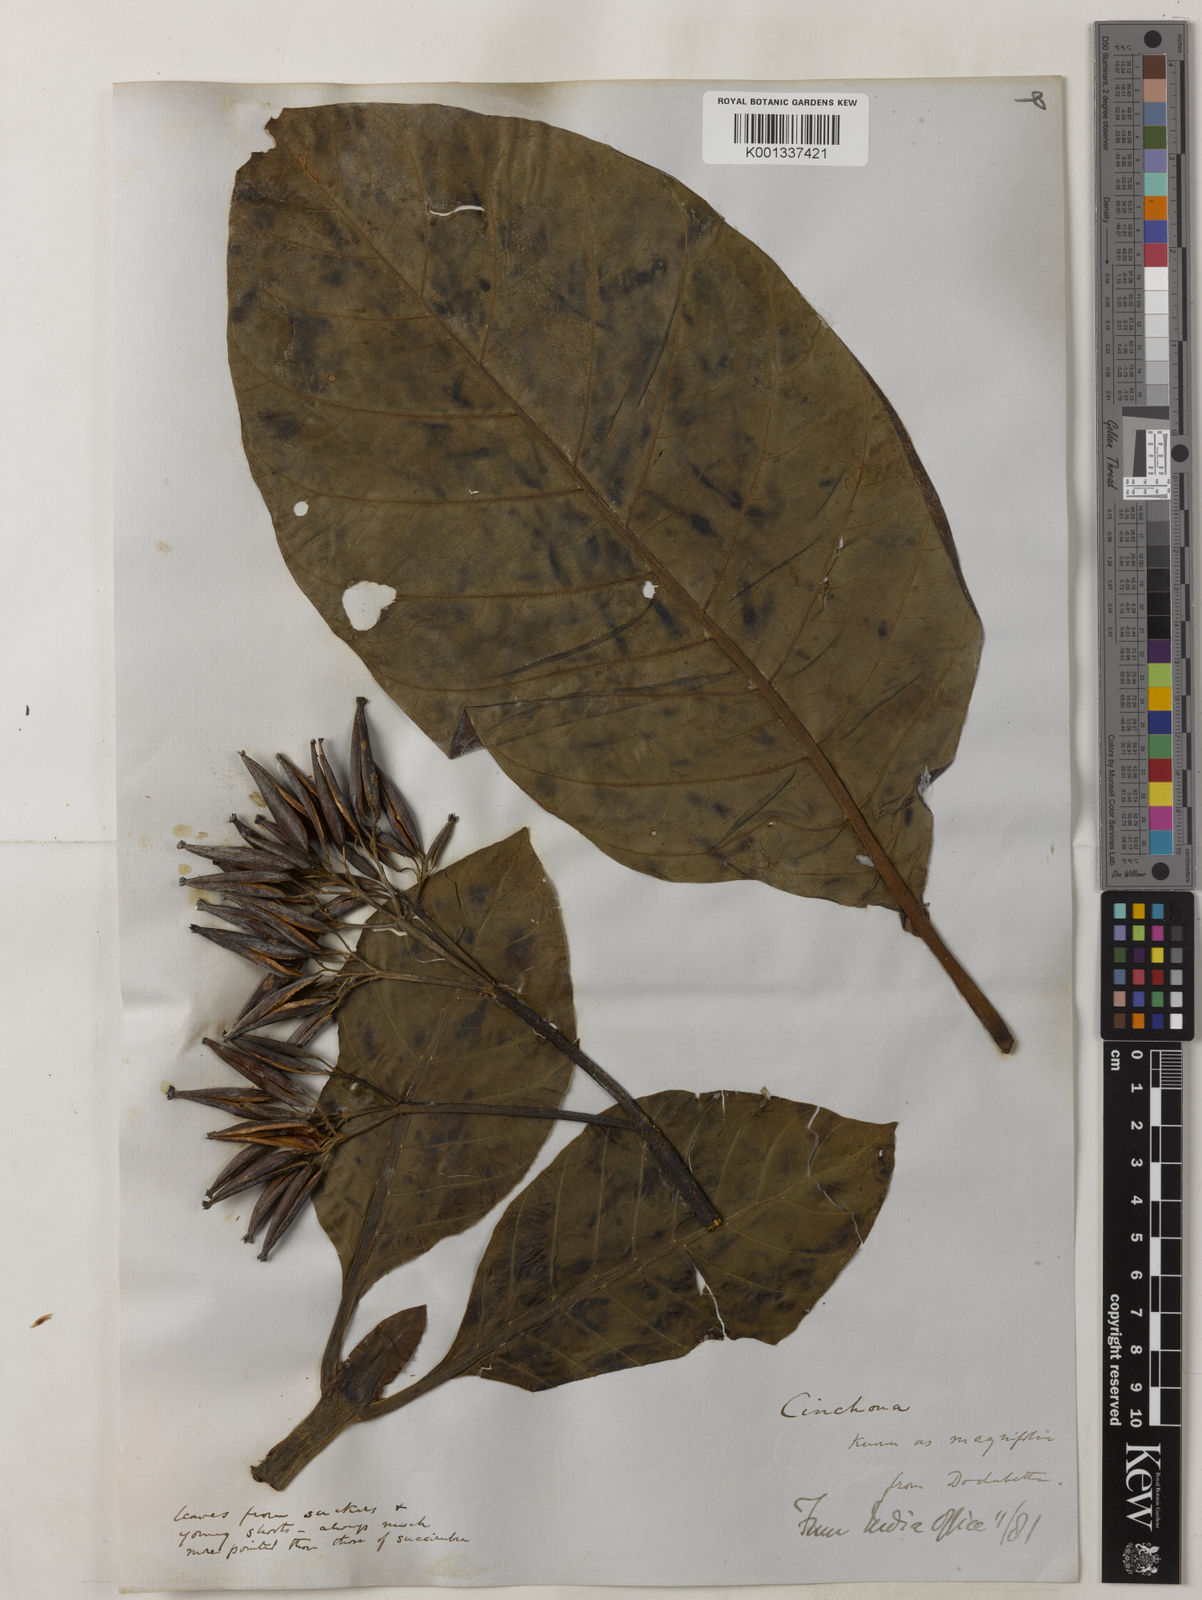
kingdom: Plantae
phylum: Tracheophyta
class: Magnoliopsida
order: Gentianales
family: Rubiaceae
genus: Ladenbergia
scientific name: Ladenbergia macrocarpa
